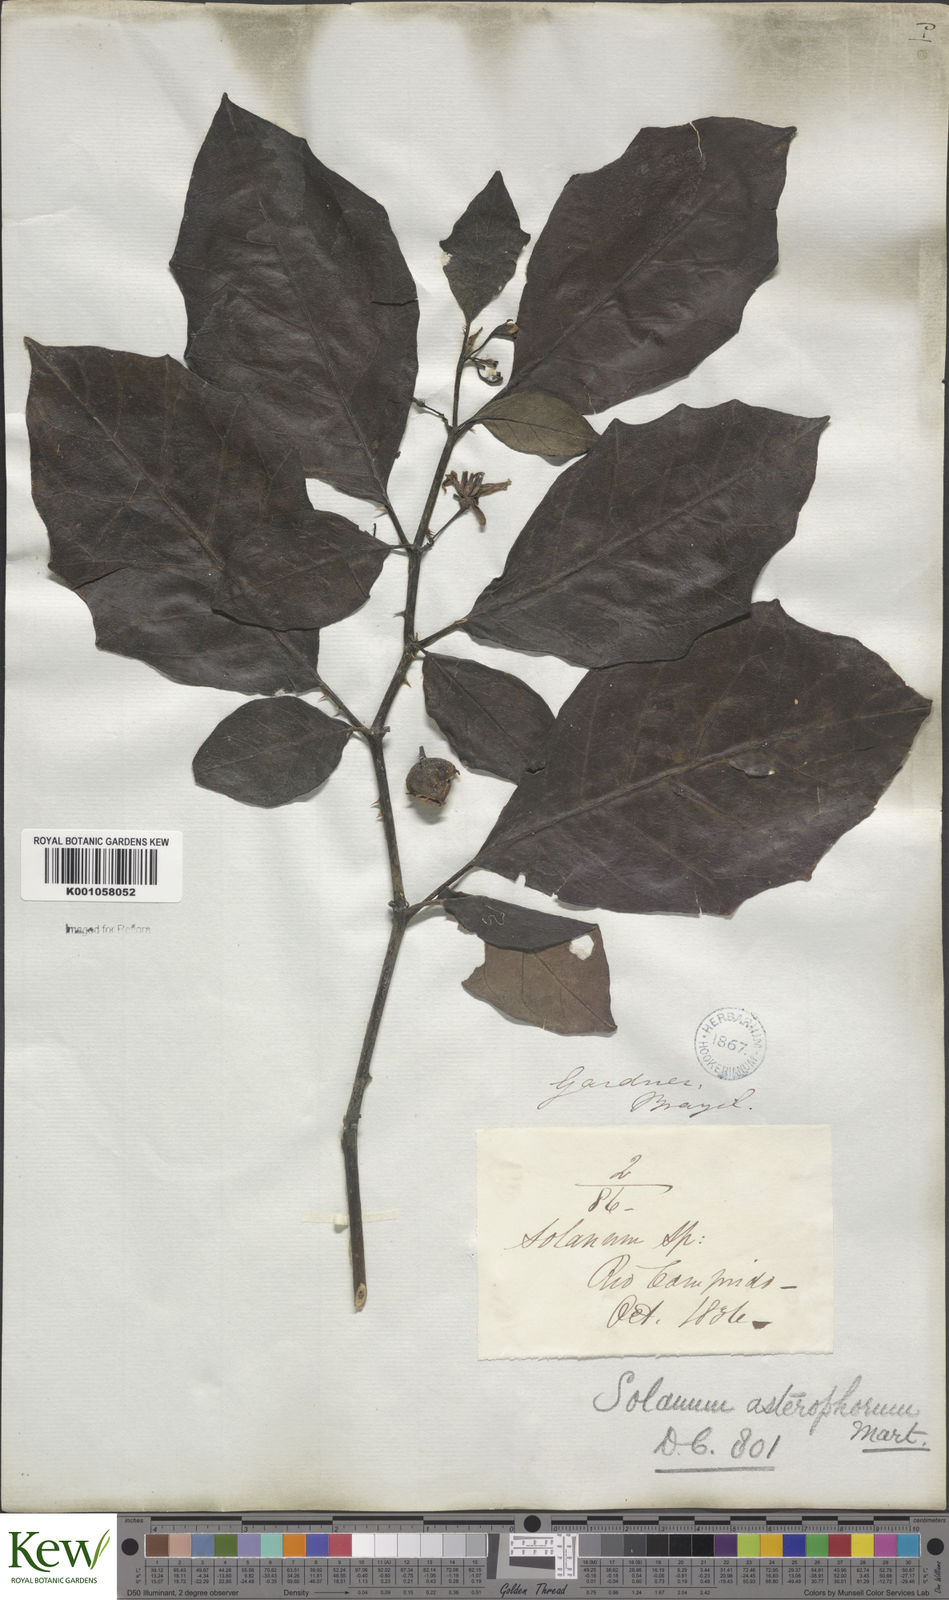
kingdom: Plantae
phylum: Tracheophyta
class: Magnoliopsida
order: Solanales
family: Solanaceae
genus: Solanum
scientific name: Solanum asterophorum
